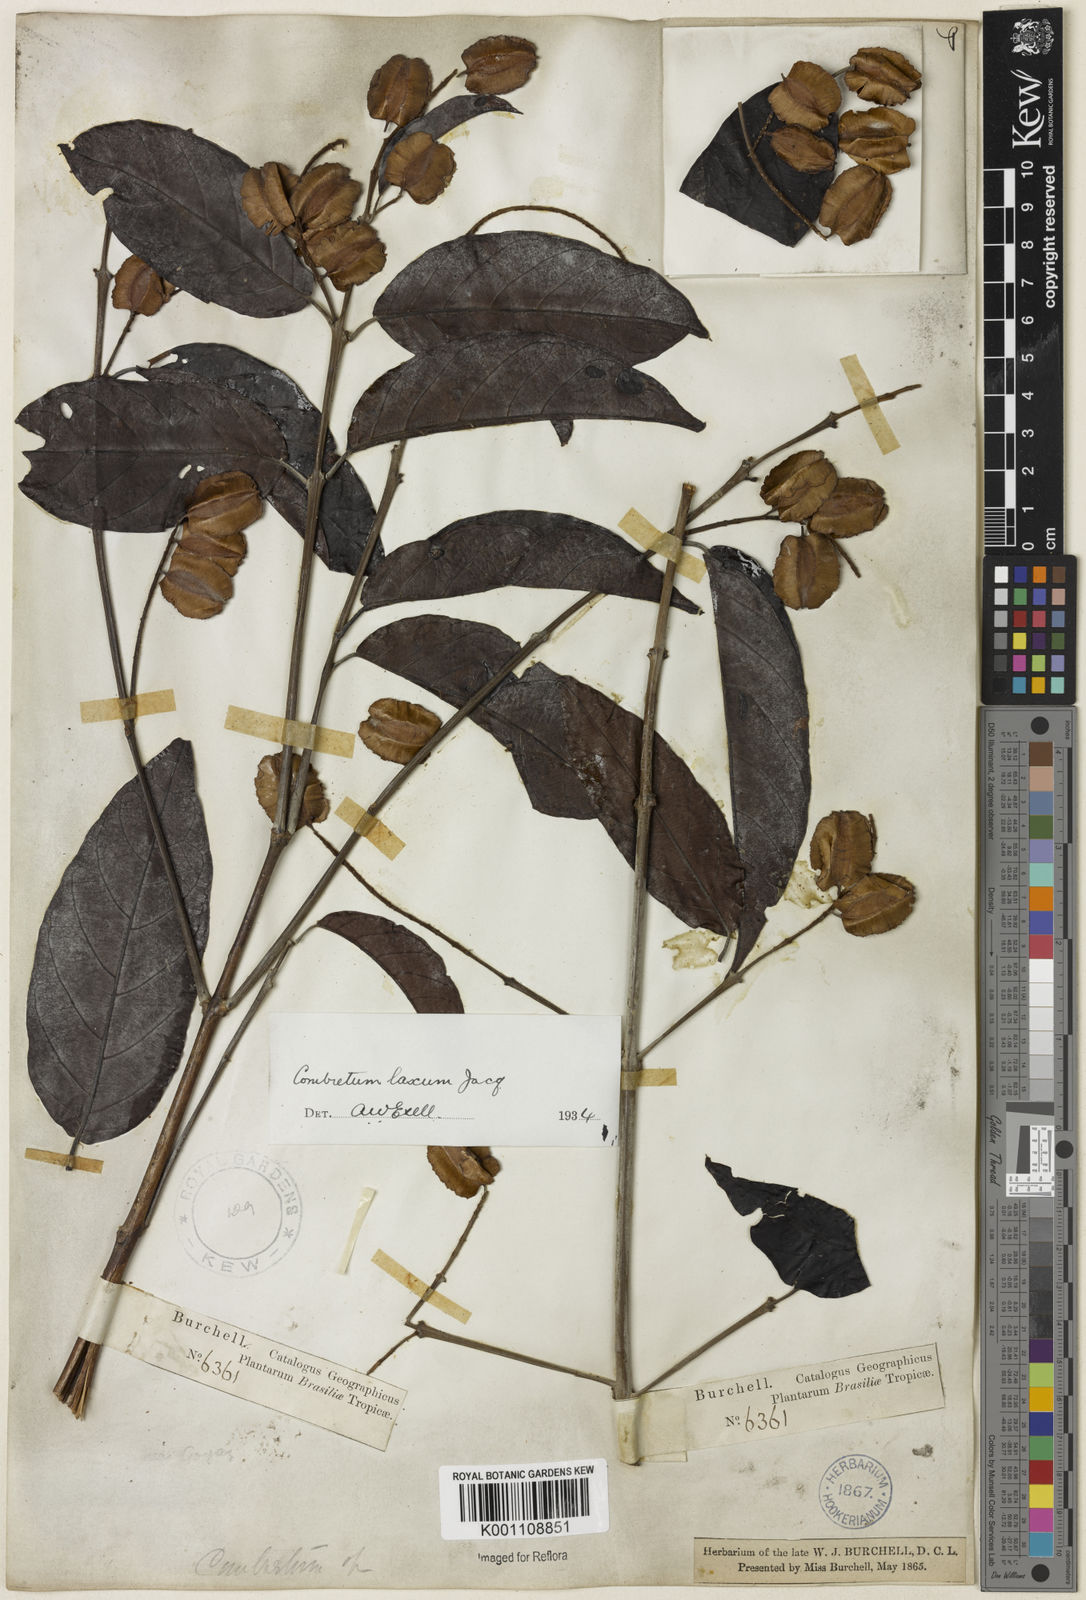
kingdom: Plantae
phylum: Tracheophyta
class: Magnoliopsida
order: Myrtales
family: Combretaceae
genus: Combretum
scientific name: Combretum laxum
